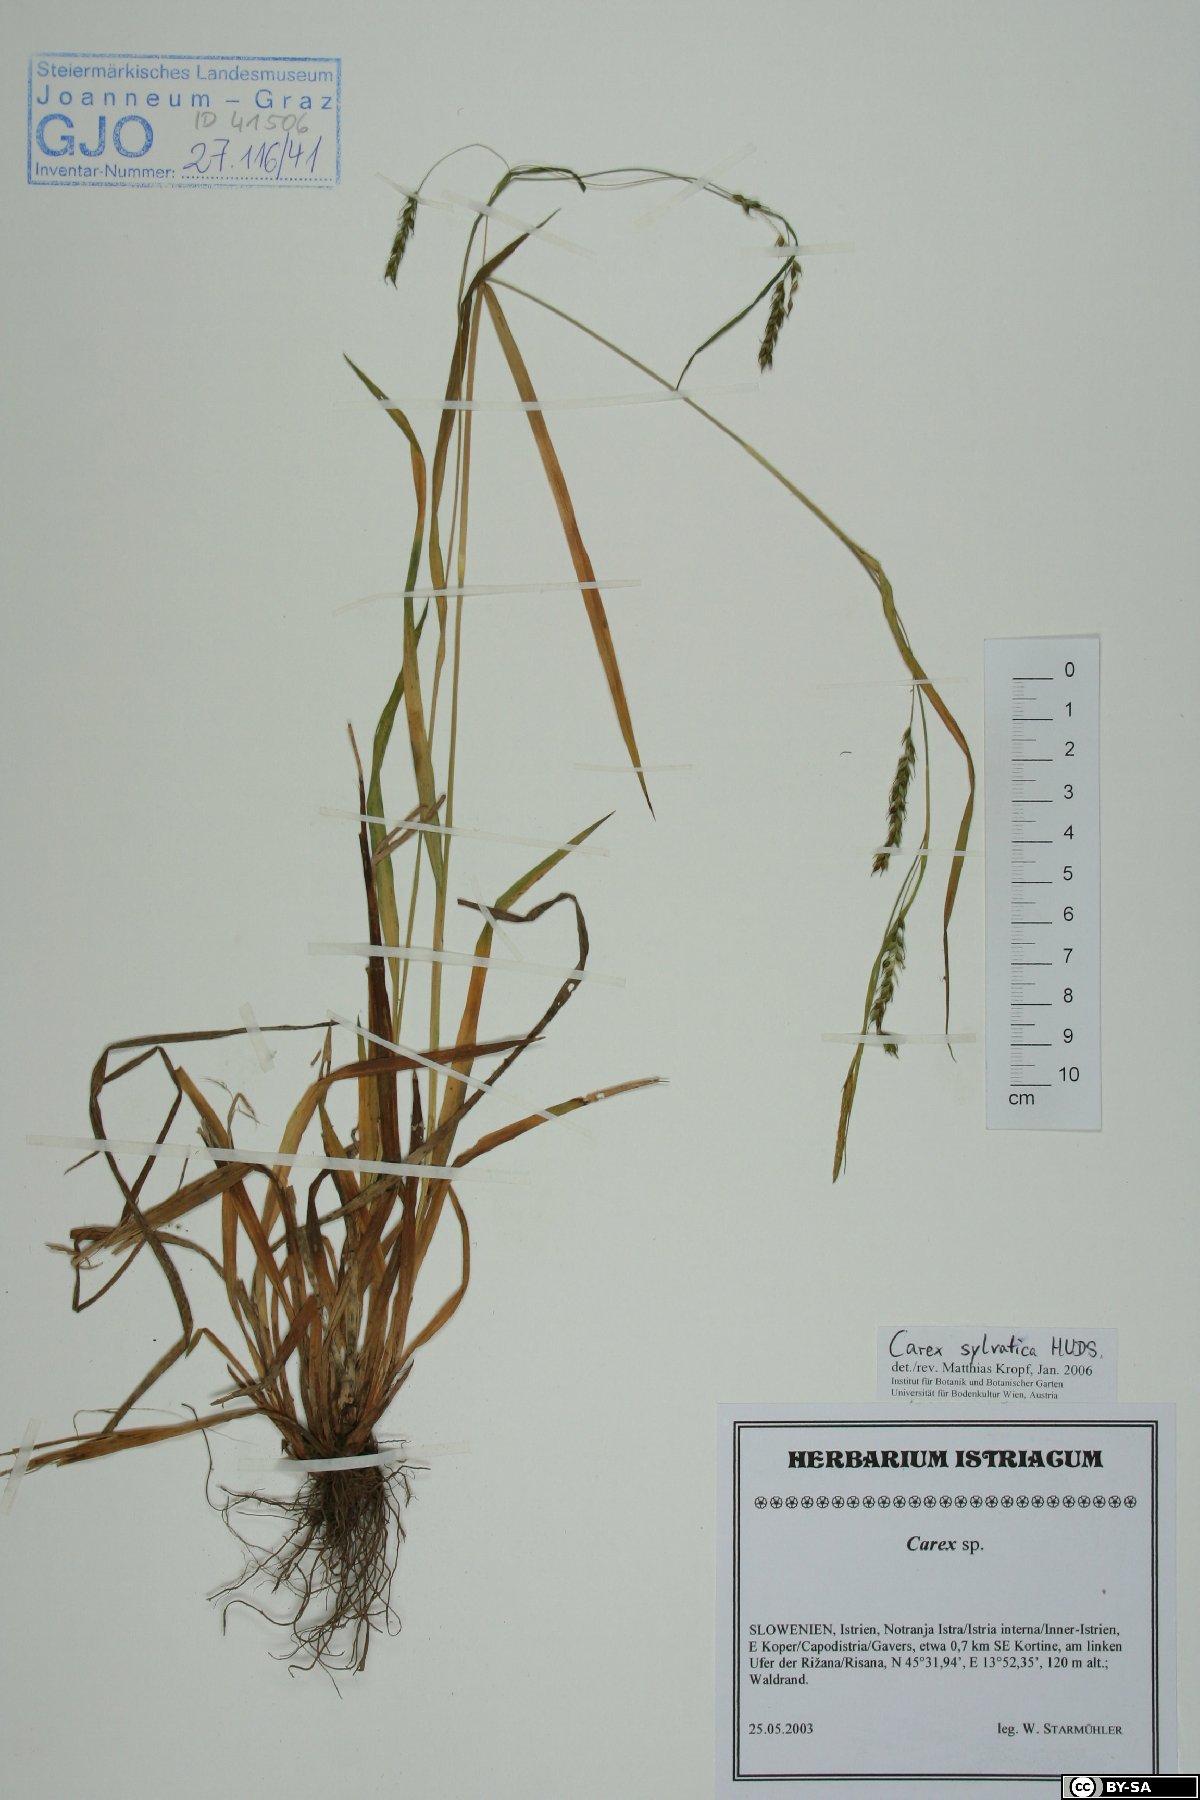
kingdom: Plantae
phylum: Tracheophyta
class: Liliopsida
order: Poales
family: Cyperaceae
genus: Carex
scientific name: Carex sylvatica
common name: Wood-sedge
